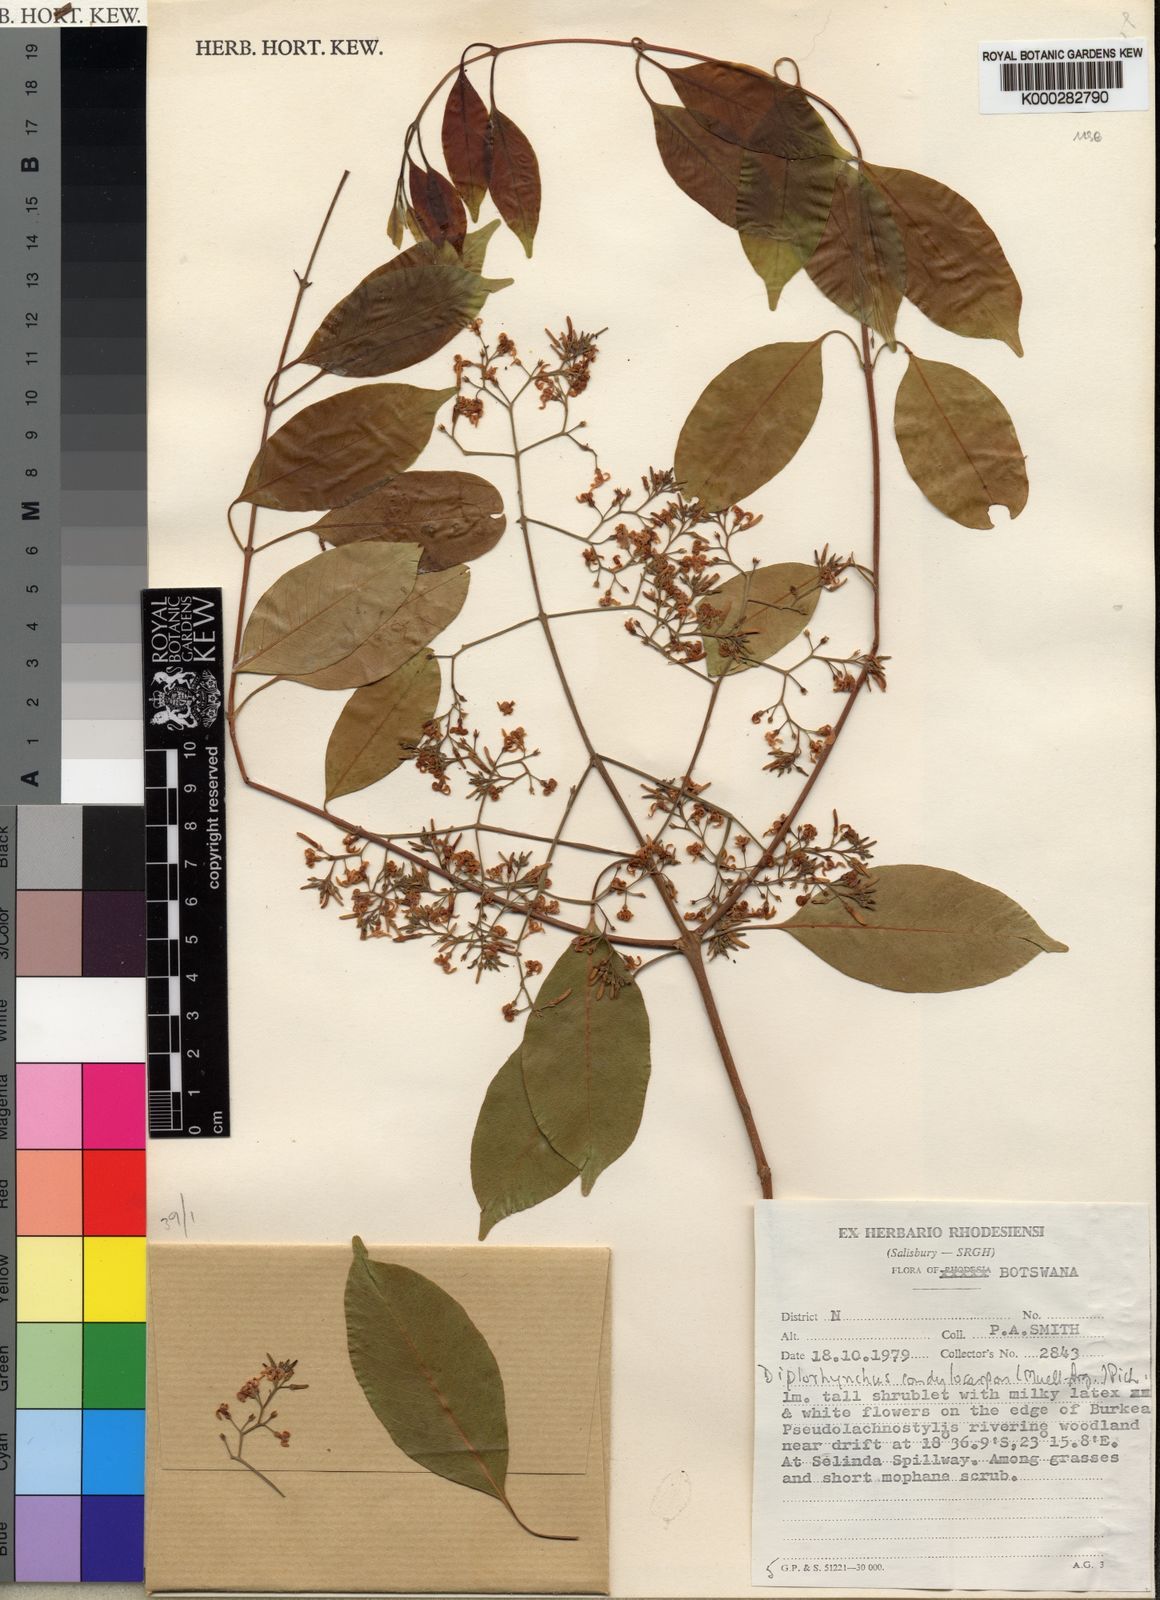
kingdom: Plantae
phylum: Tracheophyta
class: Magnoliopsida
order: Gentianales
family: Apocynaceae
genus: Diplorhynchus
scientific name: Diplorhynchus
